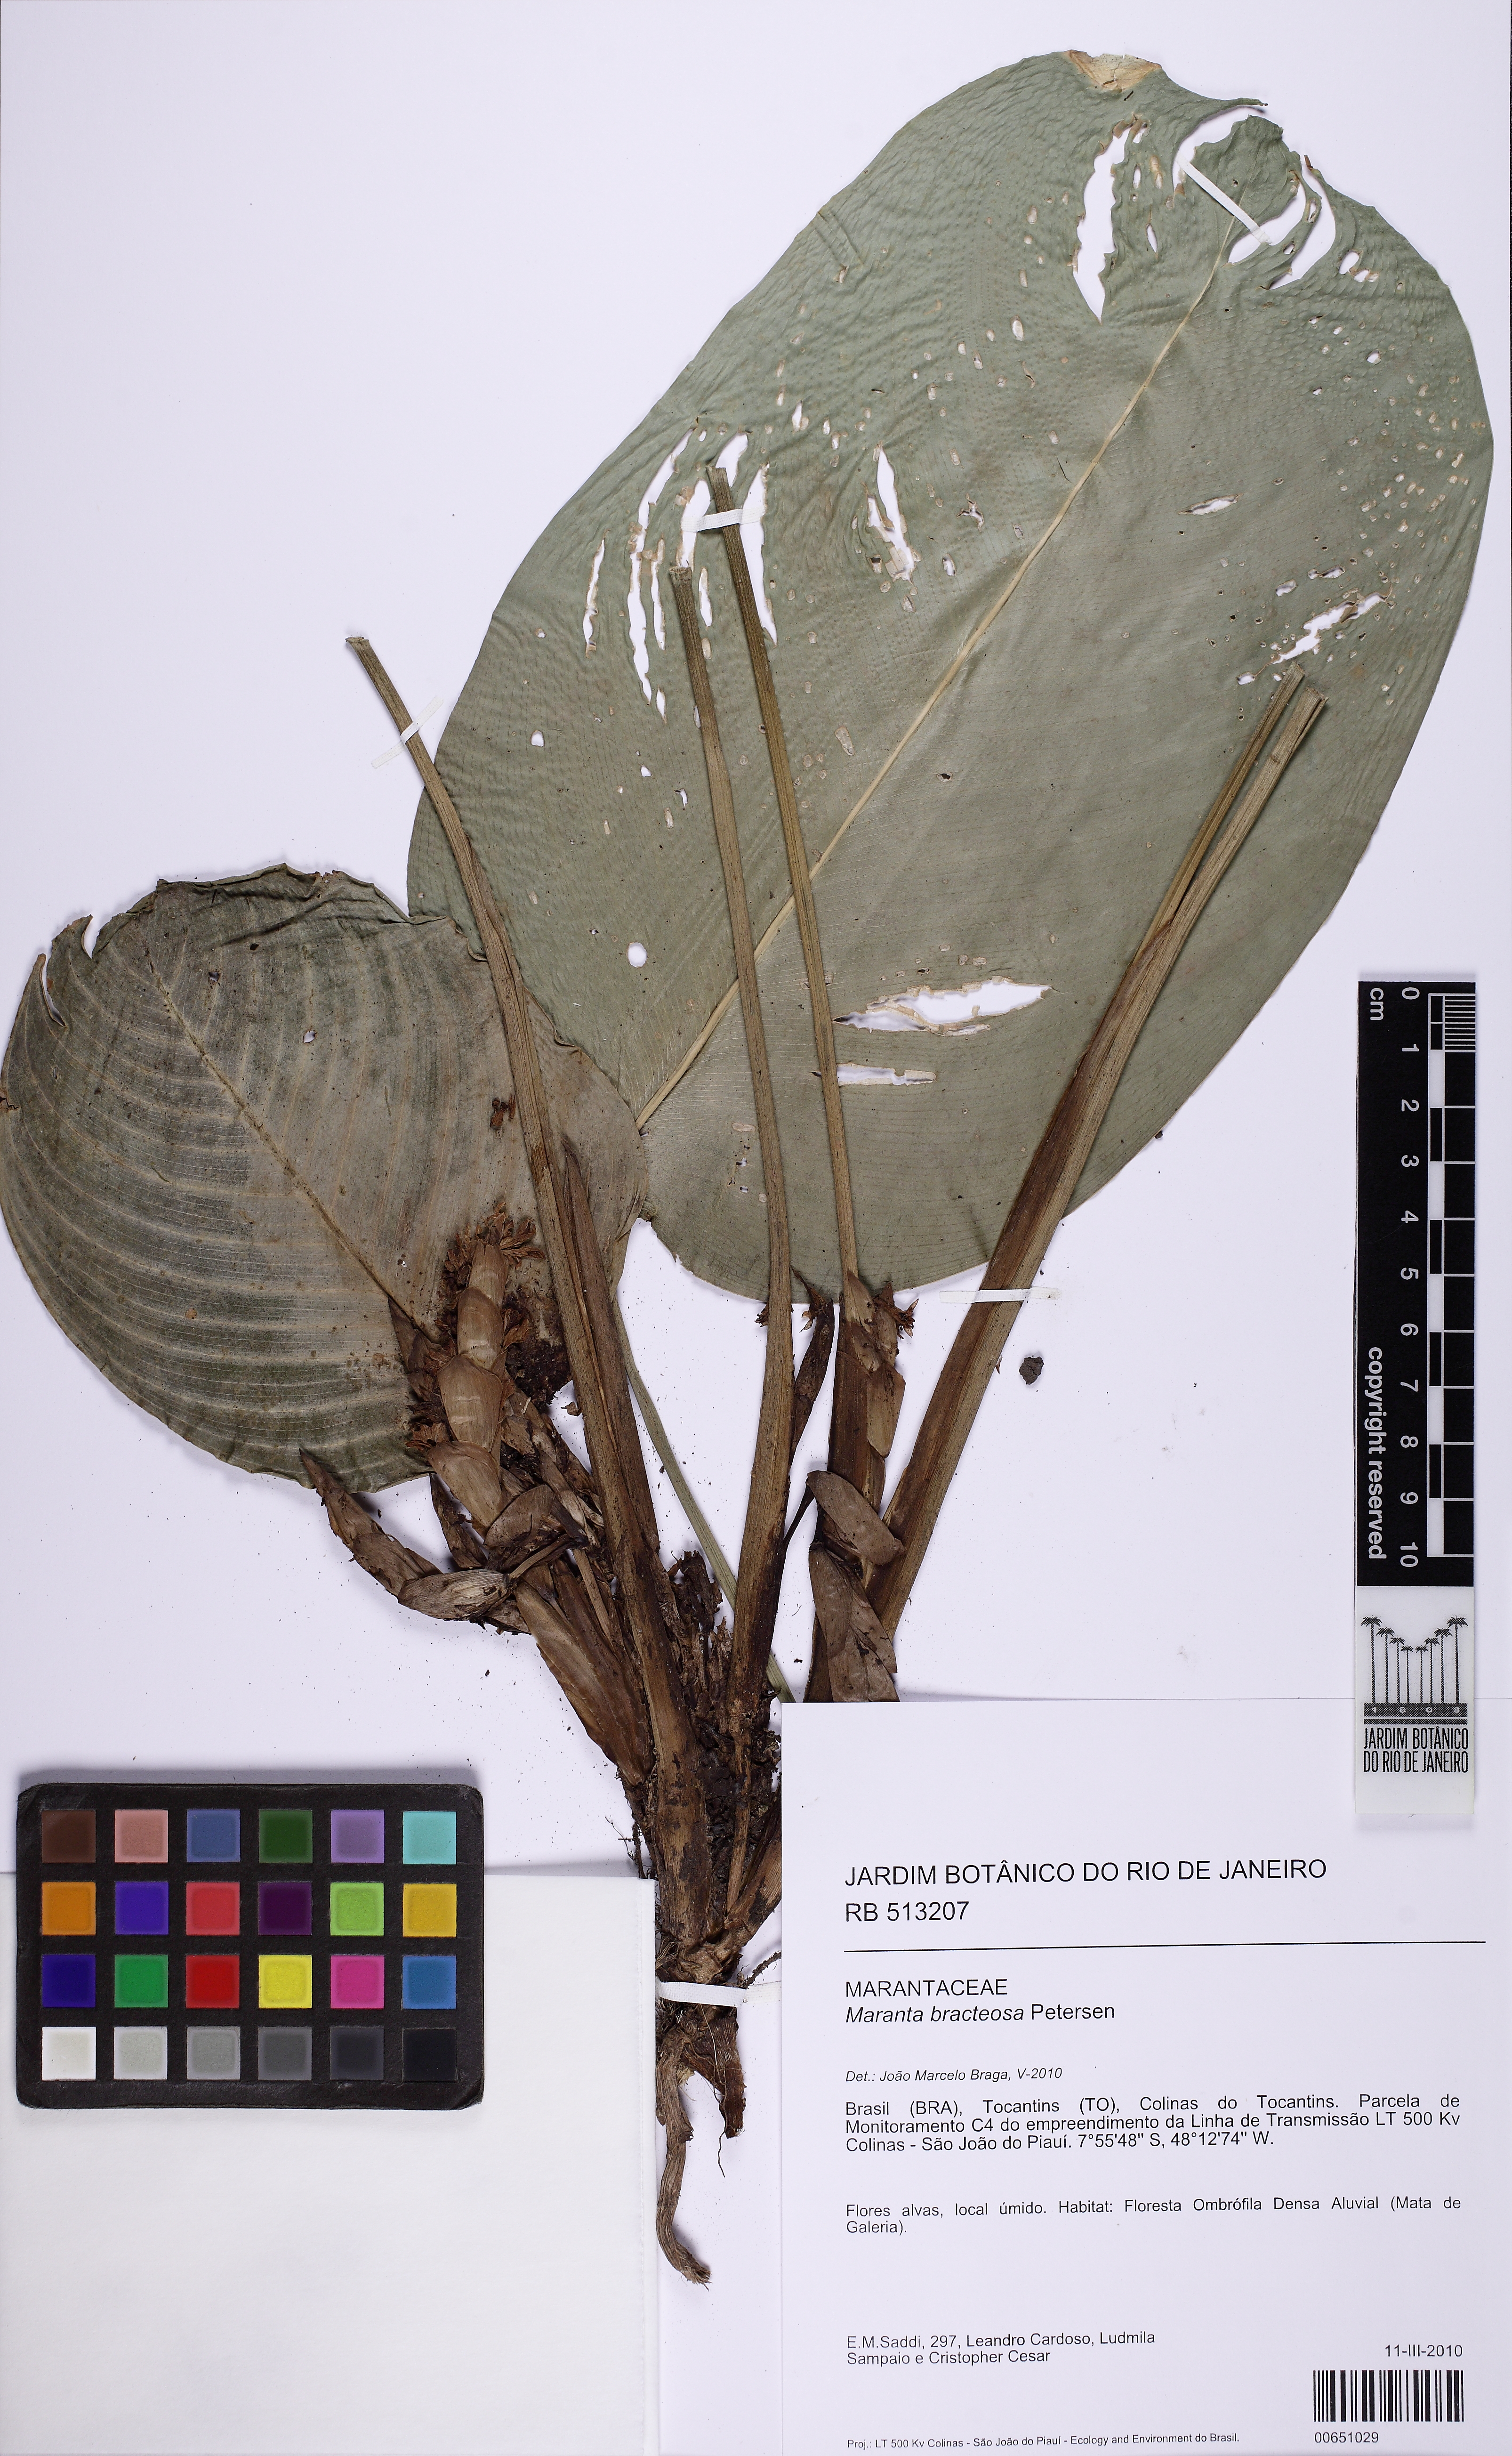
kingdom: Plantae
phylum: Tracheophyta
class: Liliopsida
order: Zingiberales
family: Marantaceae
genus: Maranta
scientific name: Maranta bracteosa
